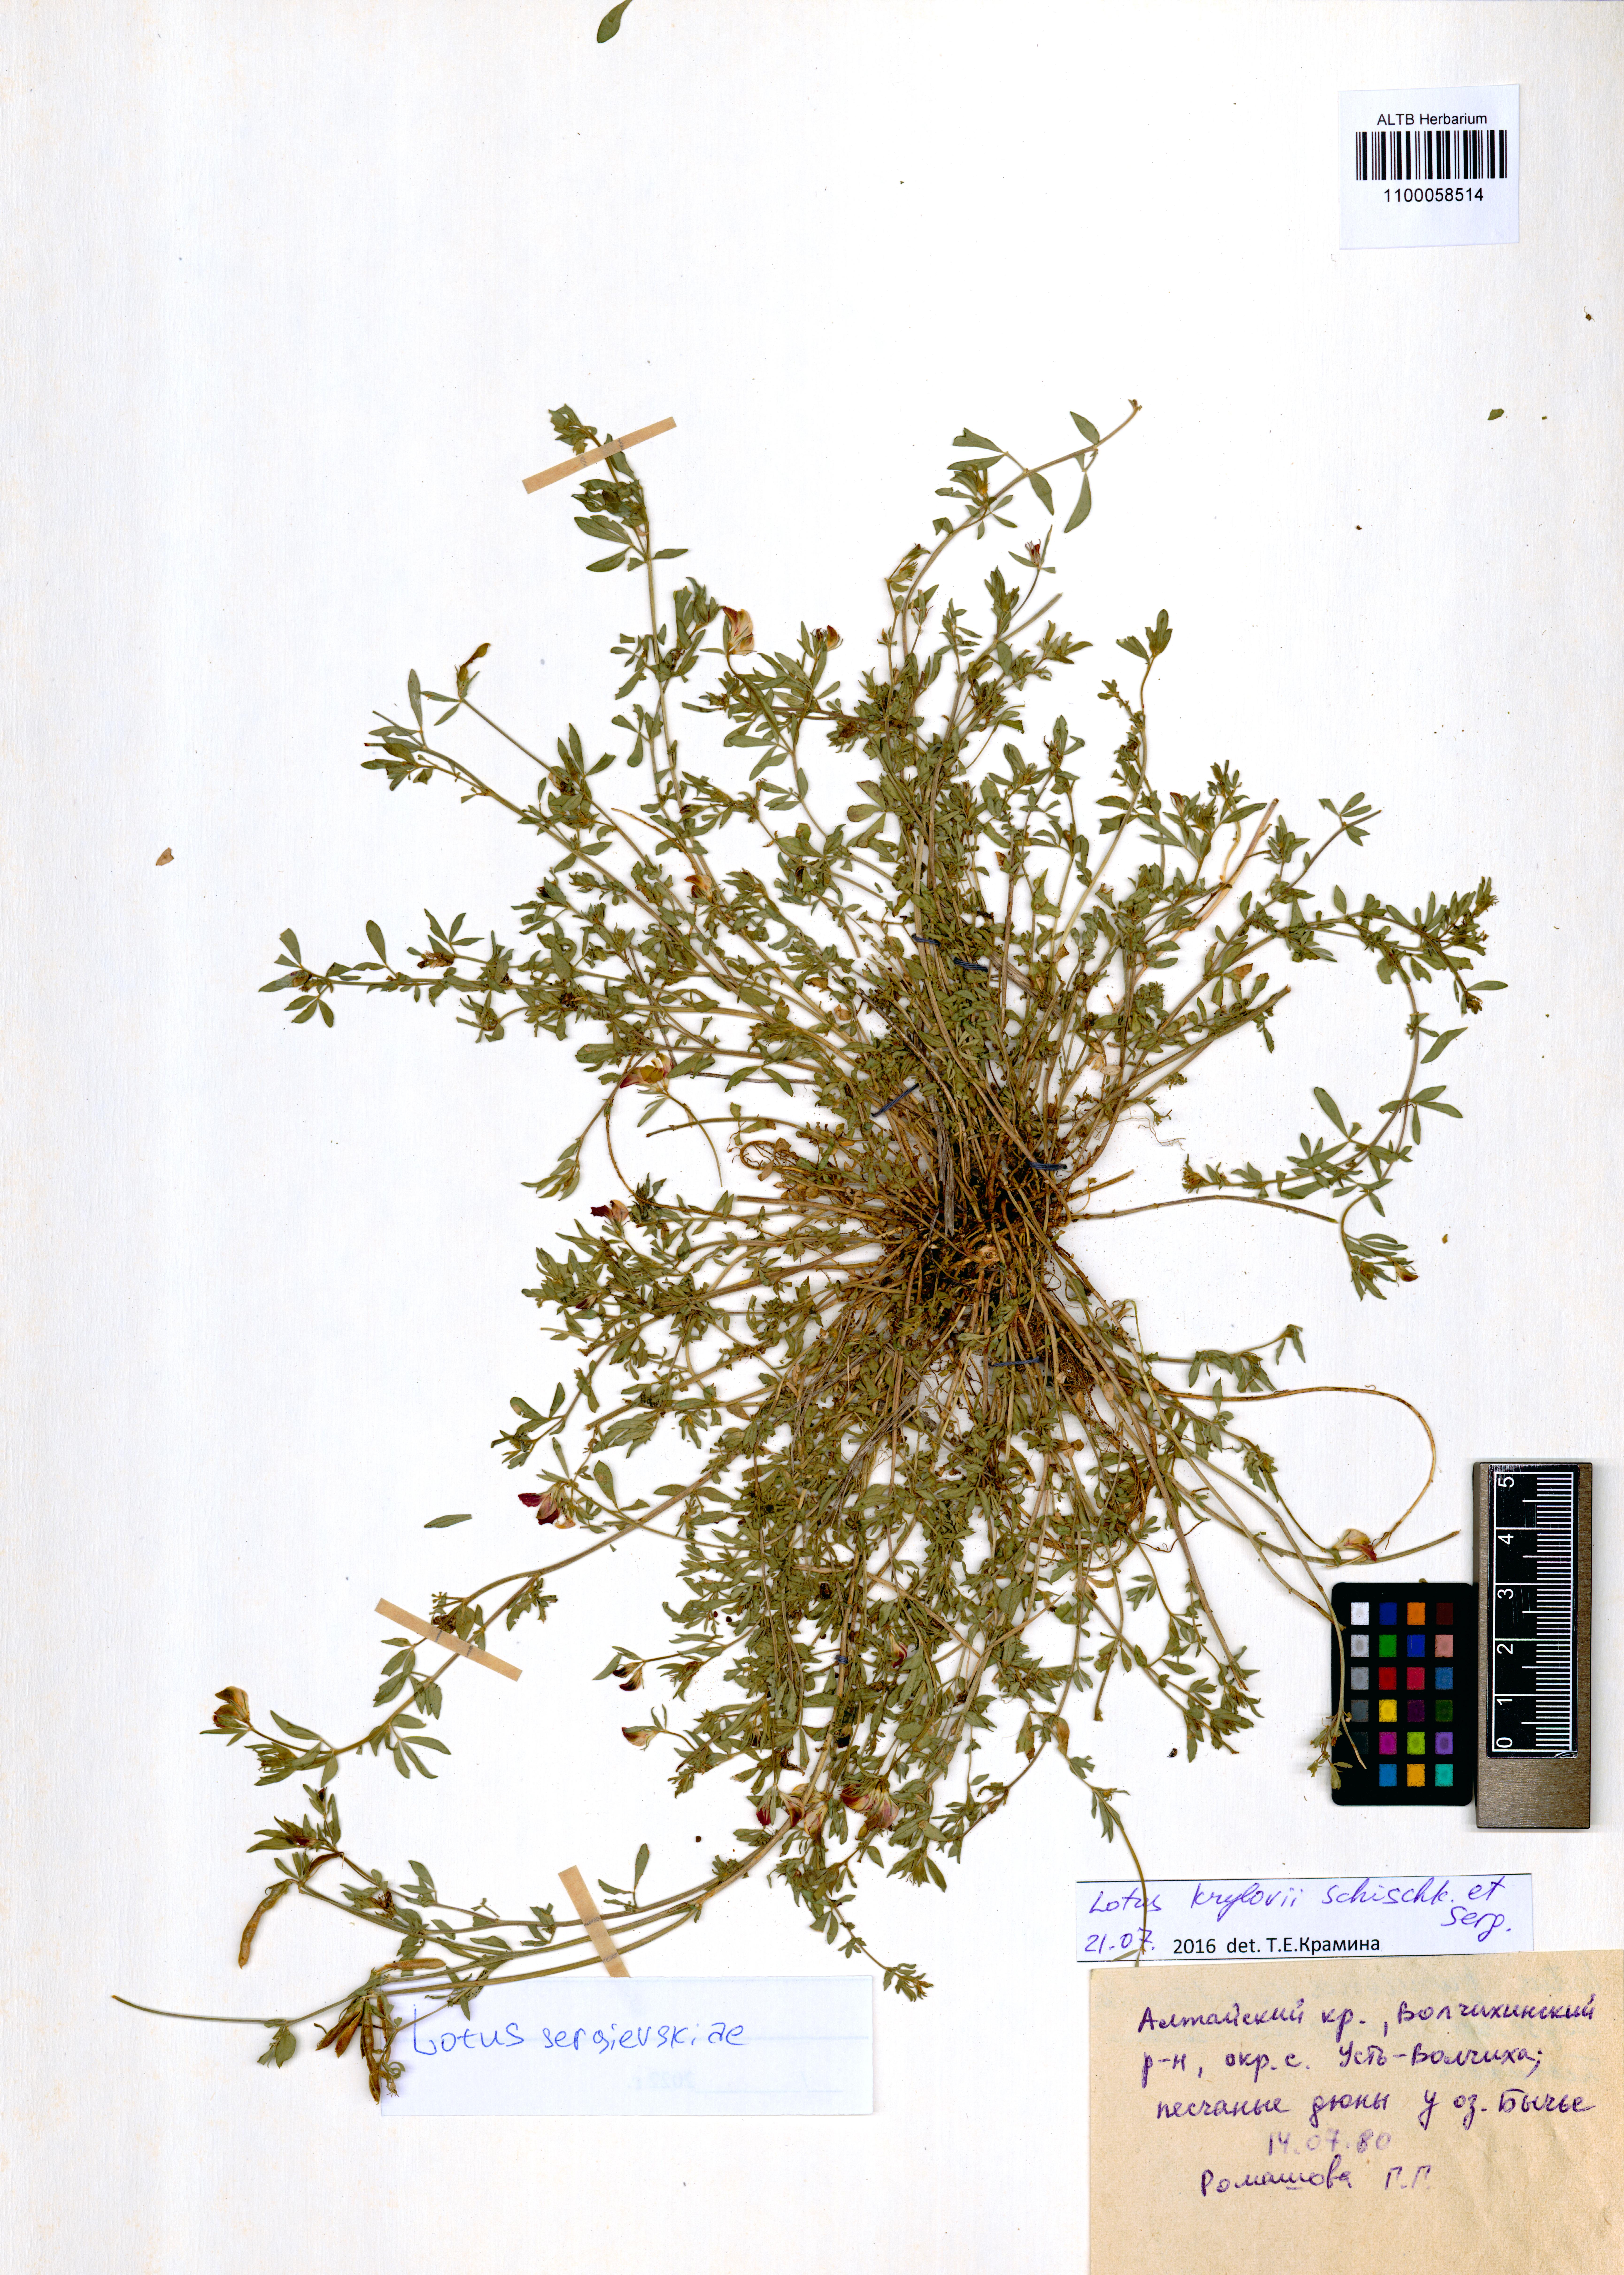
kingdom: Plantae
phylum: Tracheophyta
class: Magnoliopsida
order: Fabales
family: Fabaceae
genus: Lotus
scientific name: Lotus krylovii
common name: Krylov's bird's-foot trefoil
